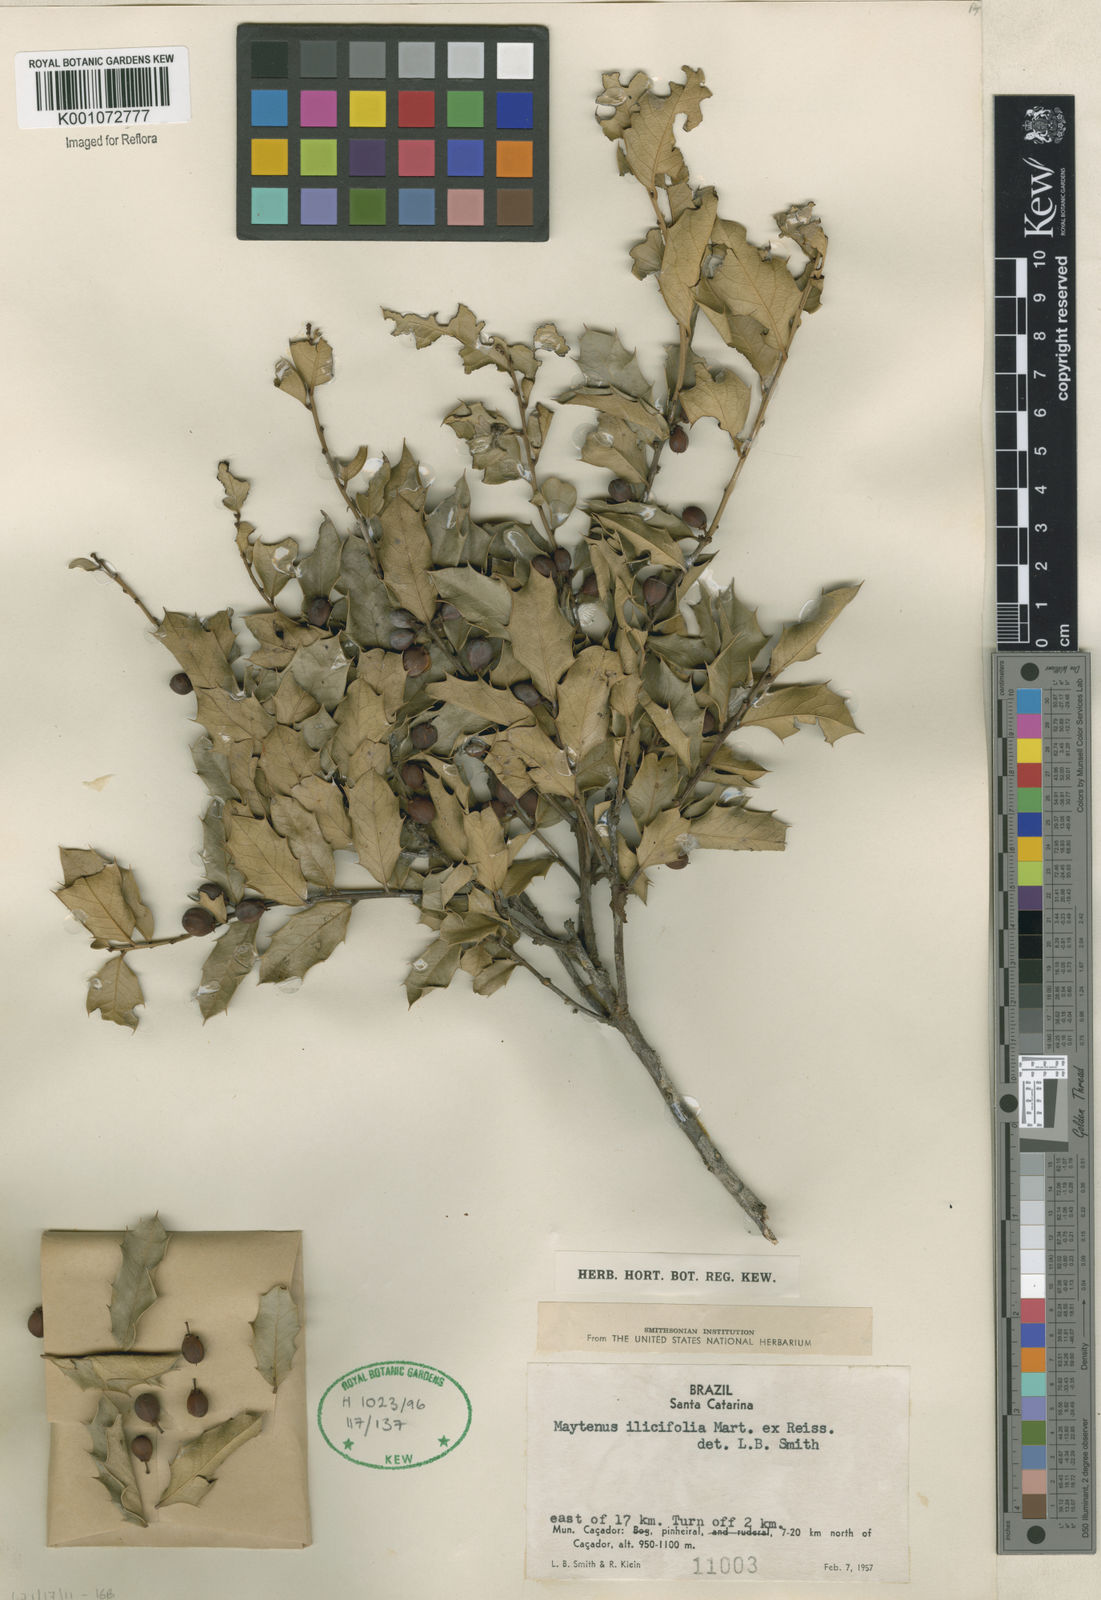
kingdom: Plantae
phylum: Tracheophyta
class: Magnoliopsida
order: Celastrales
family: Celastraceae
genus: Monteverdia
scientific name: Monteverdia ilicifolia
